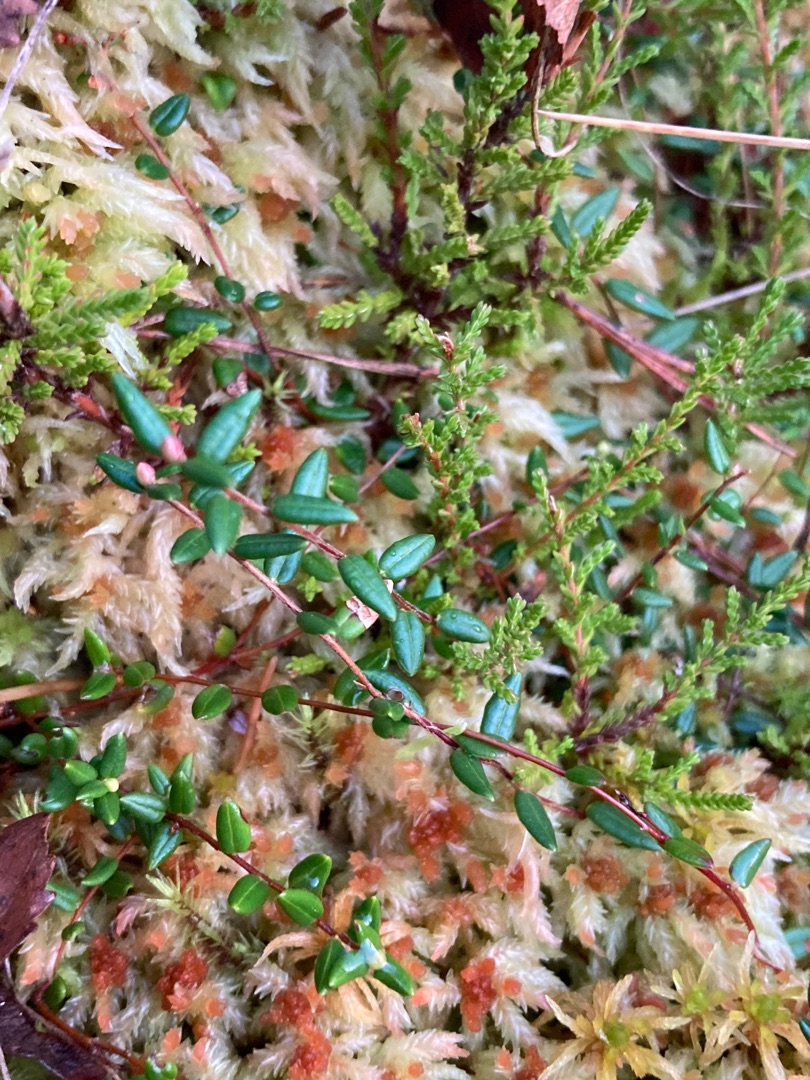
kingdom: Plantae
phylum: Tracheophyta
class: Magnoliopsida
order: Ericales
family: Ericaceae
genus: Vaccinium
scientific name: Vaccinium oxycoccos
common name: Tranebær
